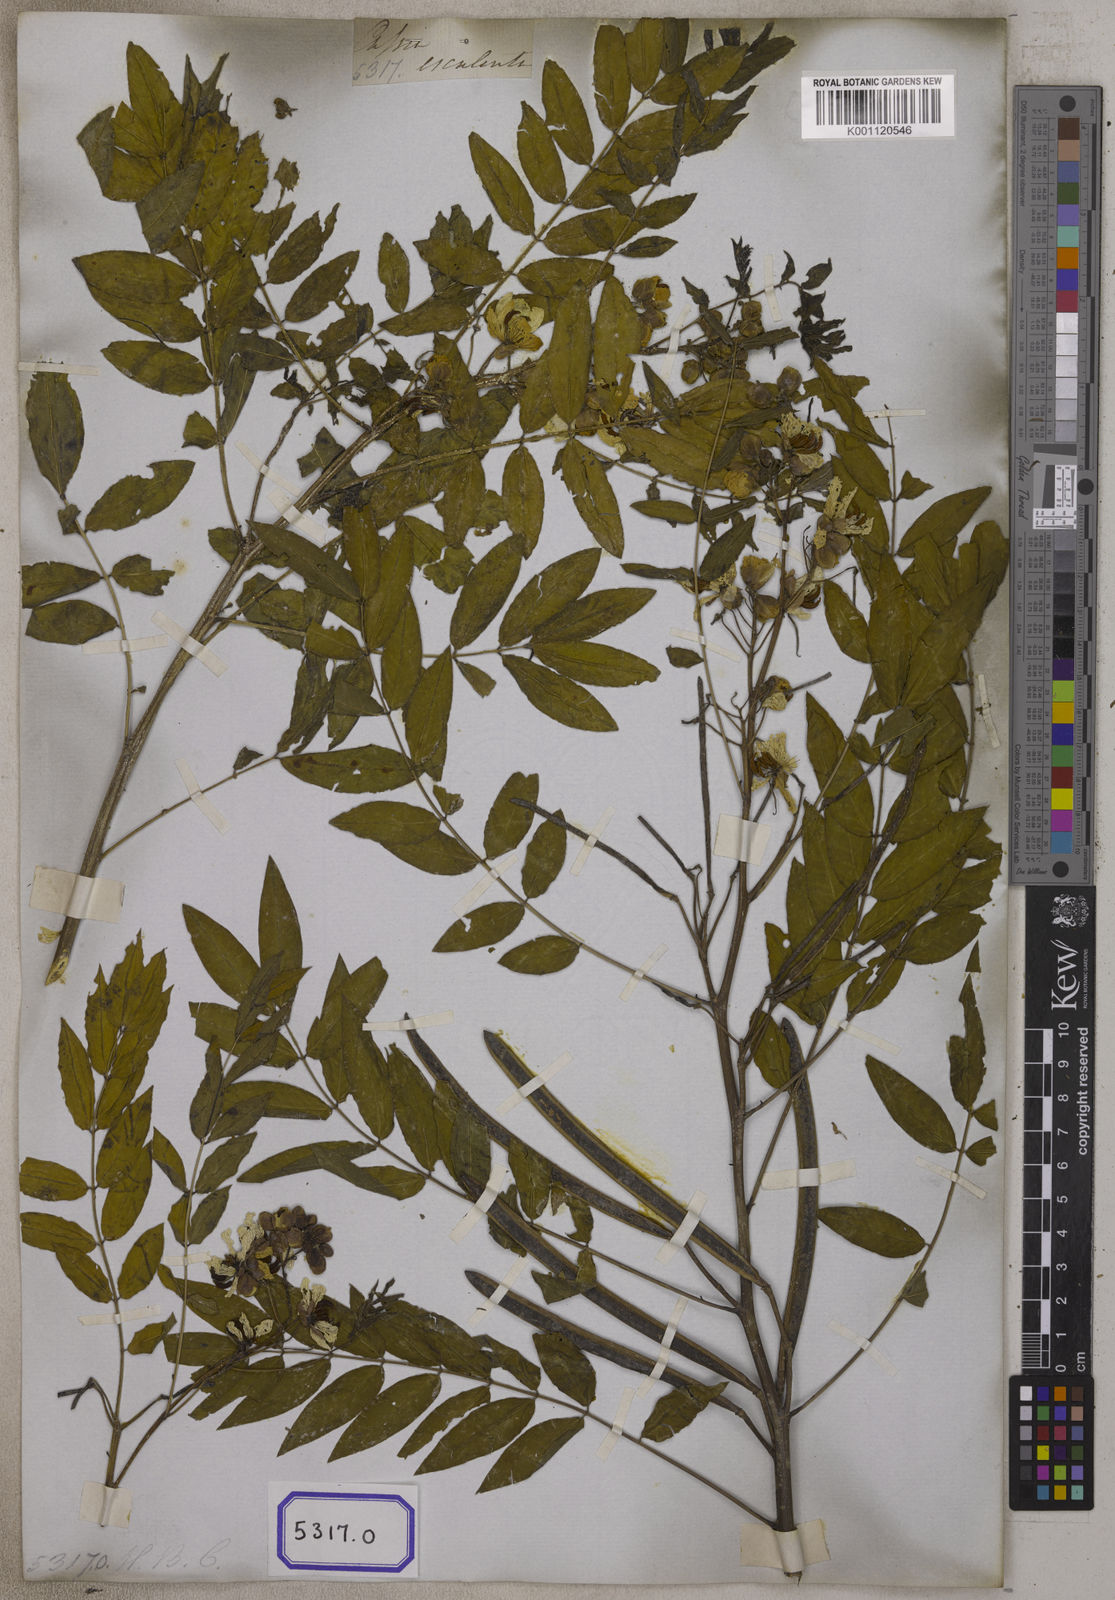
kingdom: Plantae
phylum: Tracheophyta
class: Magnoliopsida
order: Fabales
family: Fabaceae
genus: Cassia
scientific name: Cassia
